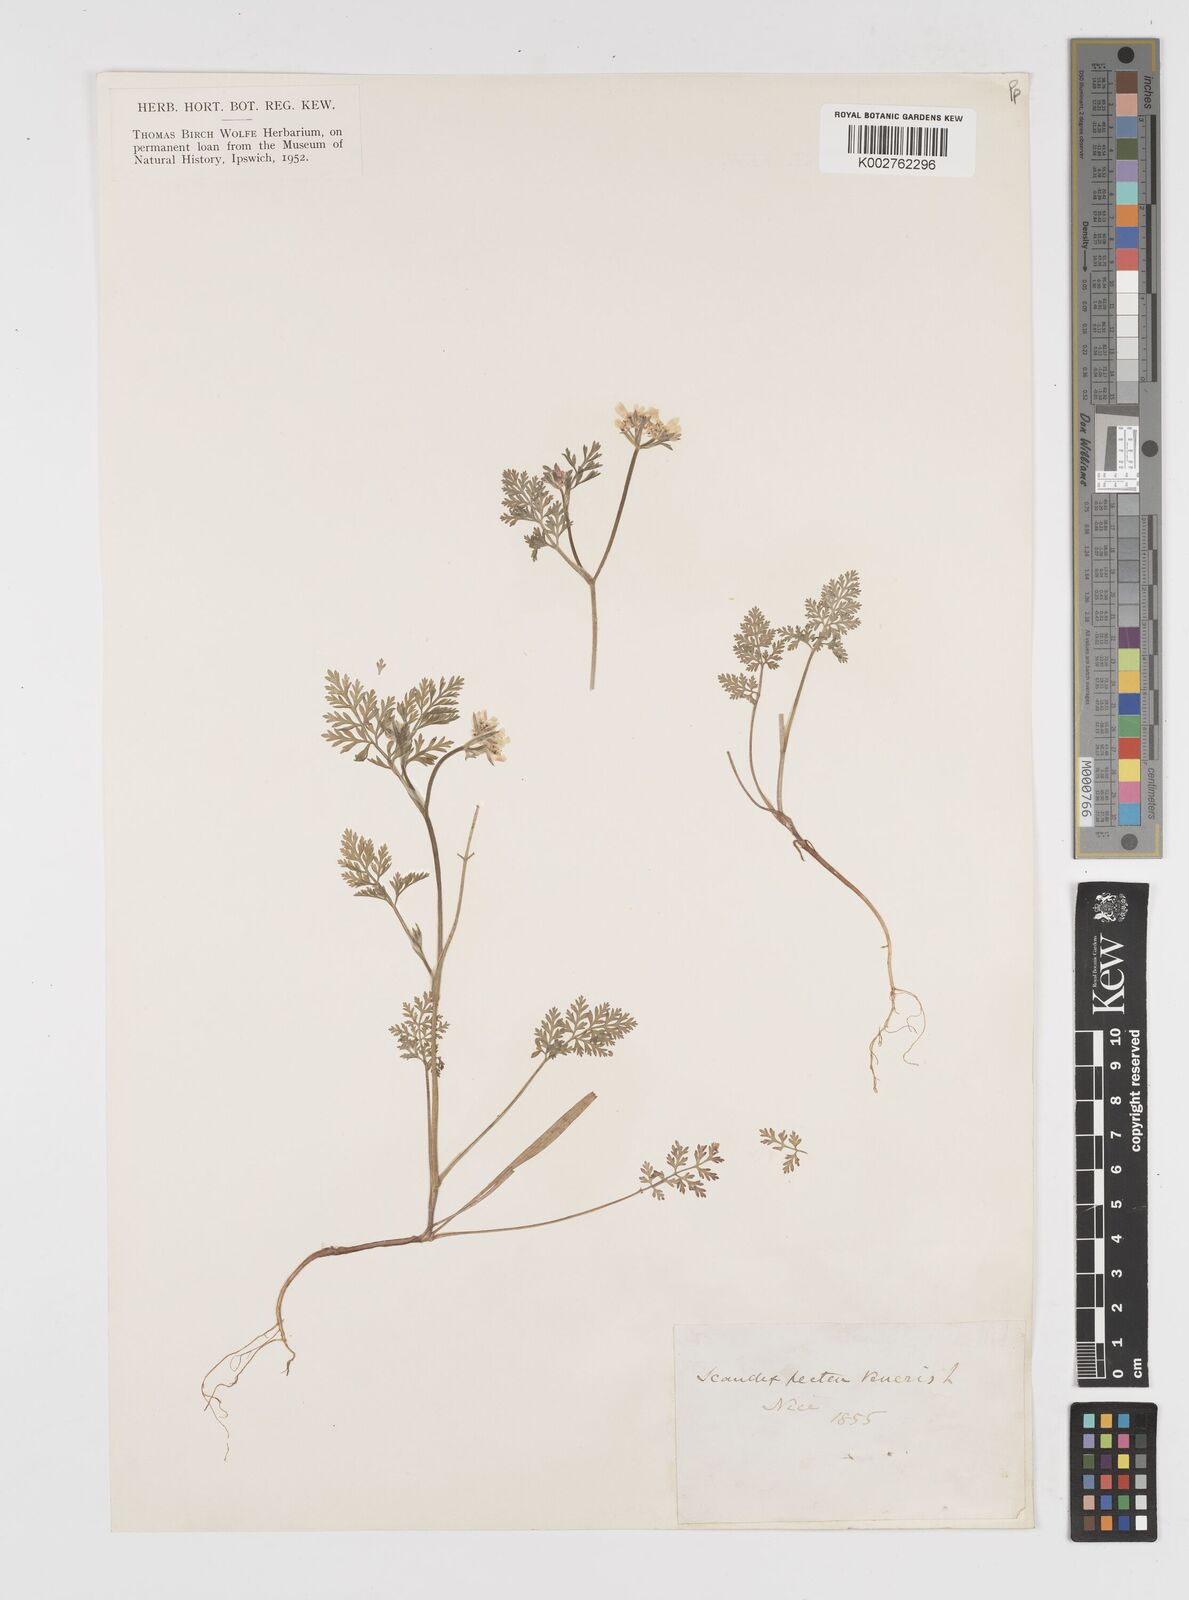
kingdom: Plantae
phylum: Tracheophyta
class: Magnoliopsida
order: Apiales
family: Apiaceae
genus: Scandix
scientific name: Scandix pecten-veneris
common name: Shepherd's-needle
